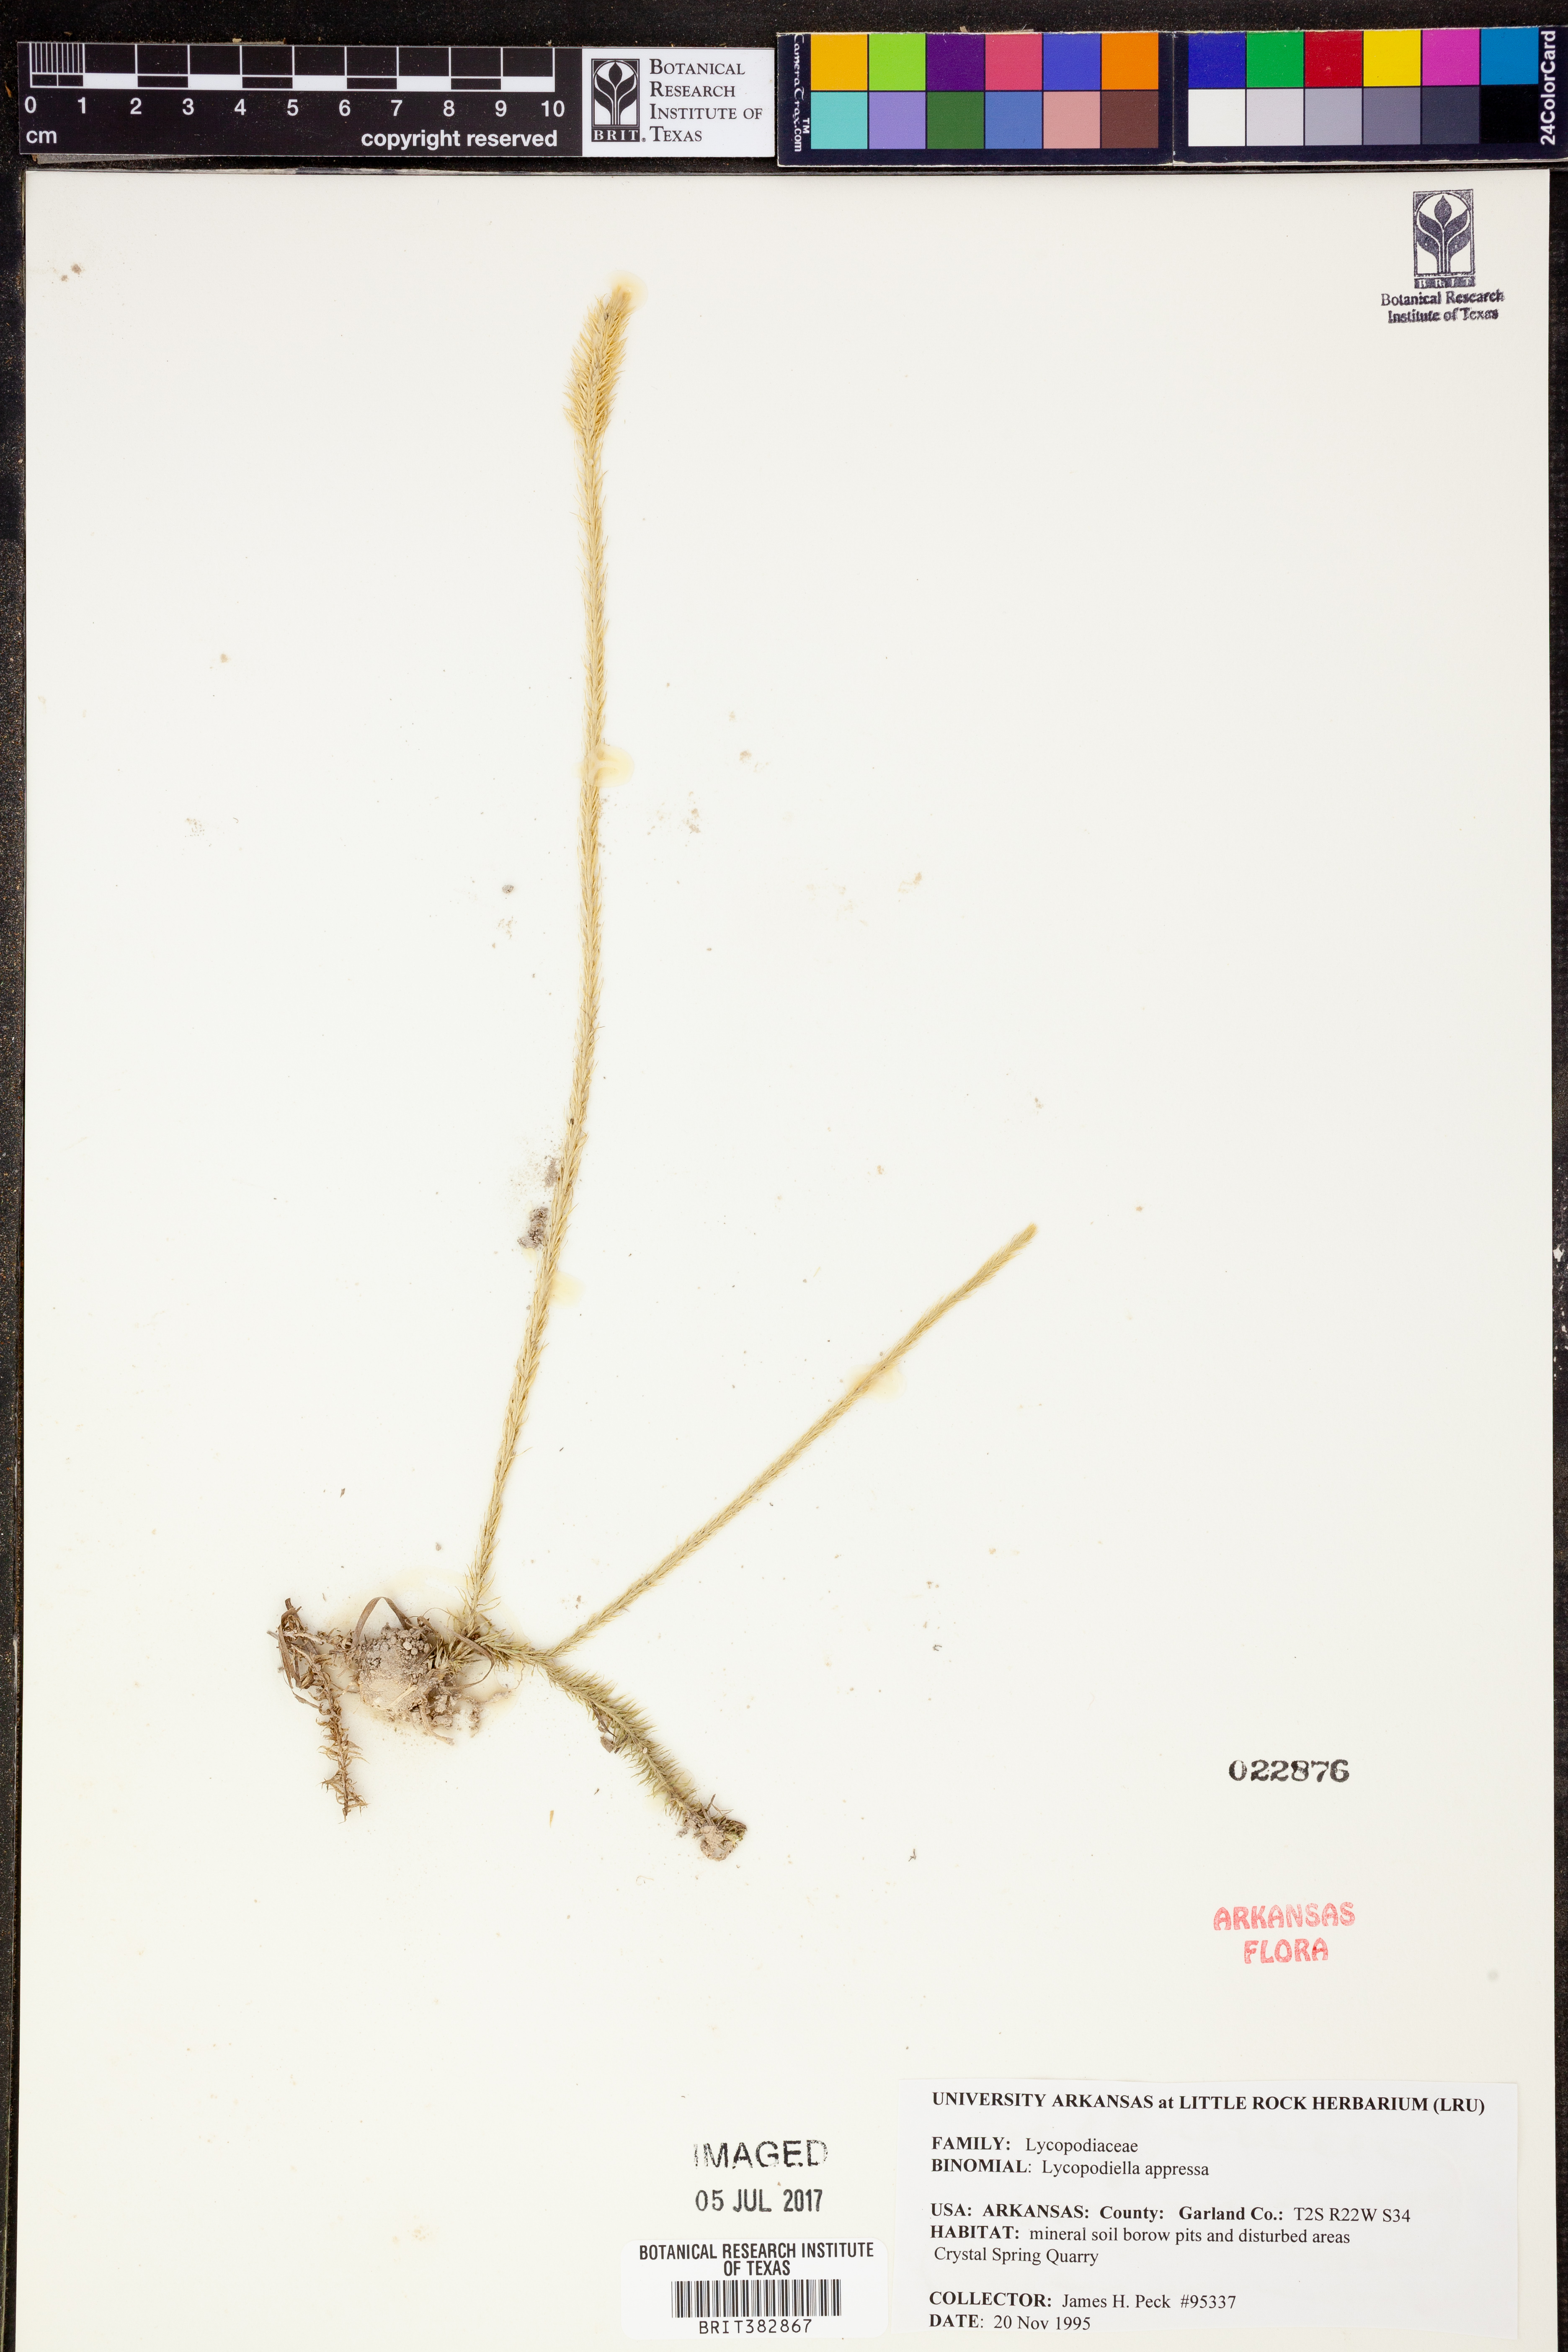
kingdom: Plantae
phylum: Tracheophyta
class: Lycopodiopsida
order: Lycopodiales
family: Lycopodiaceae
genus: Lycopodiella
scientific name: Lycopodiella appressa
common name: Appressed bog clubmoss
